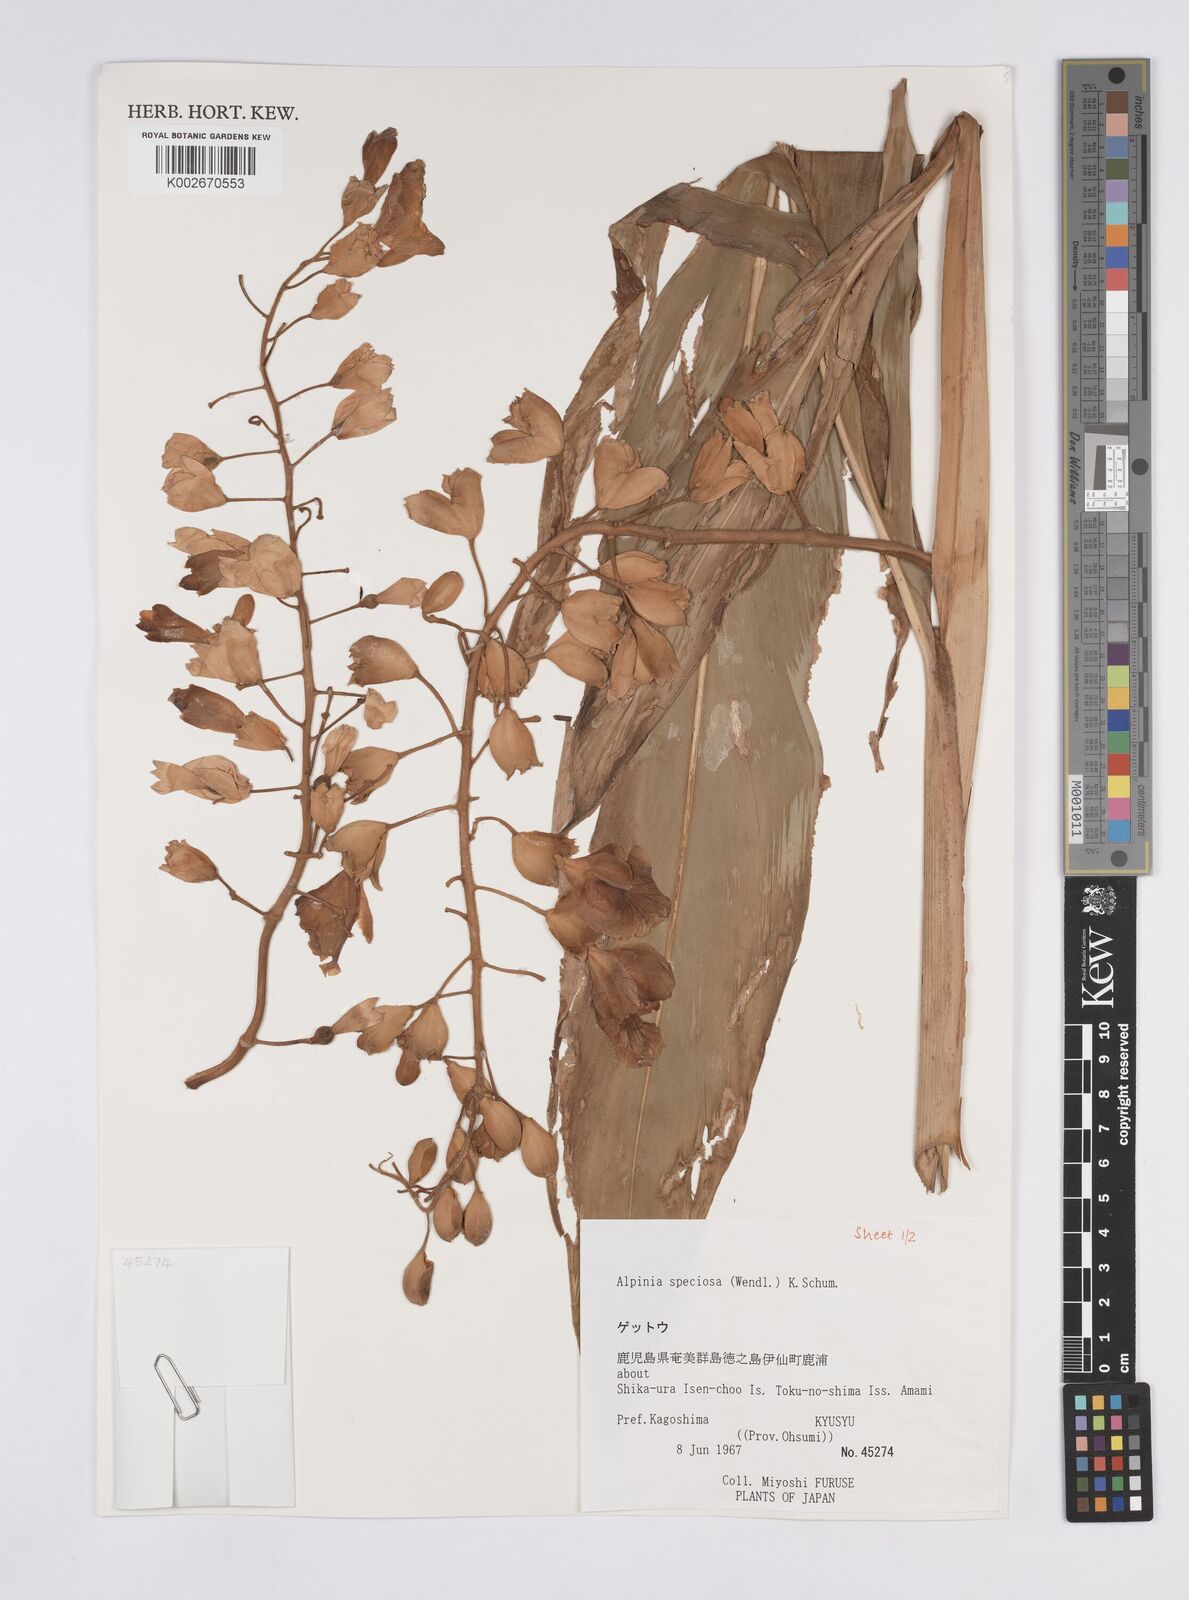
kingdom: Plantae
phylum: Tracheophyta
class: Liliopsida
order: Zingiberales
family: Zingiberaceae
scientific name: Zingiberaceae
